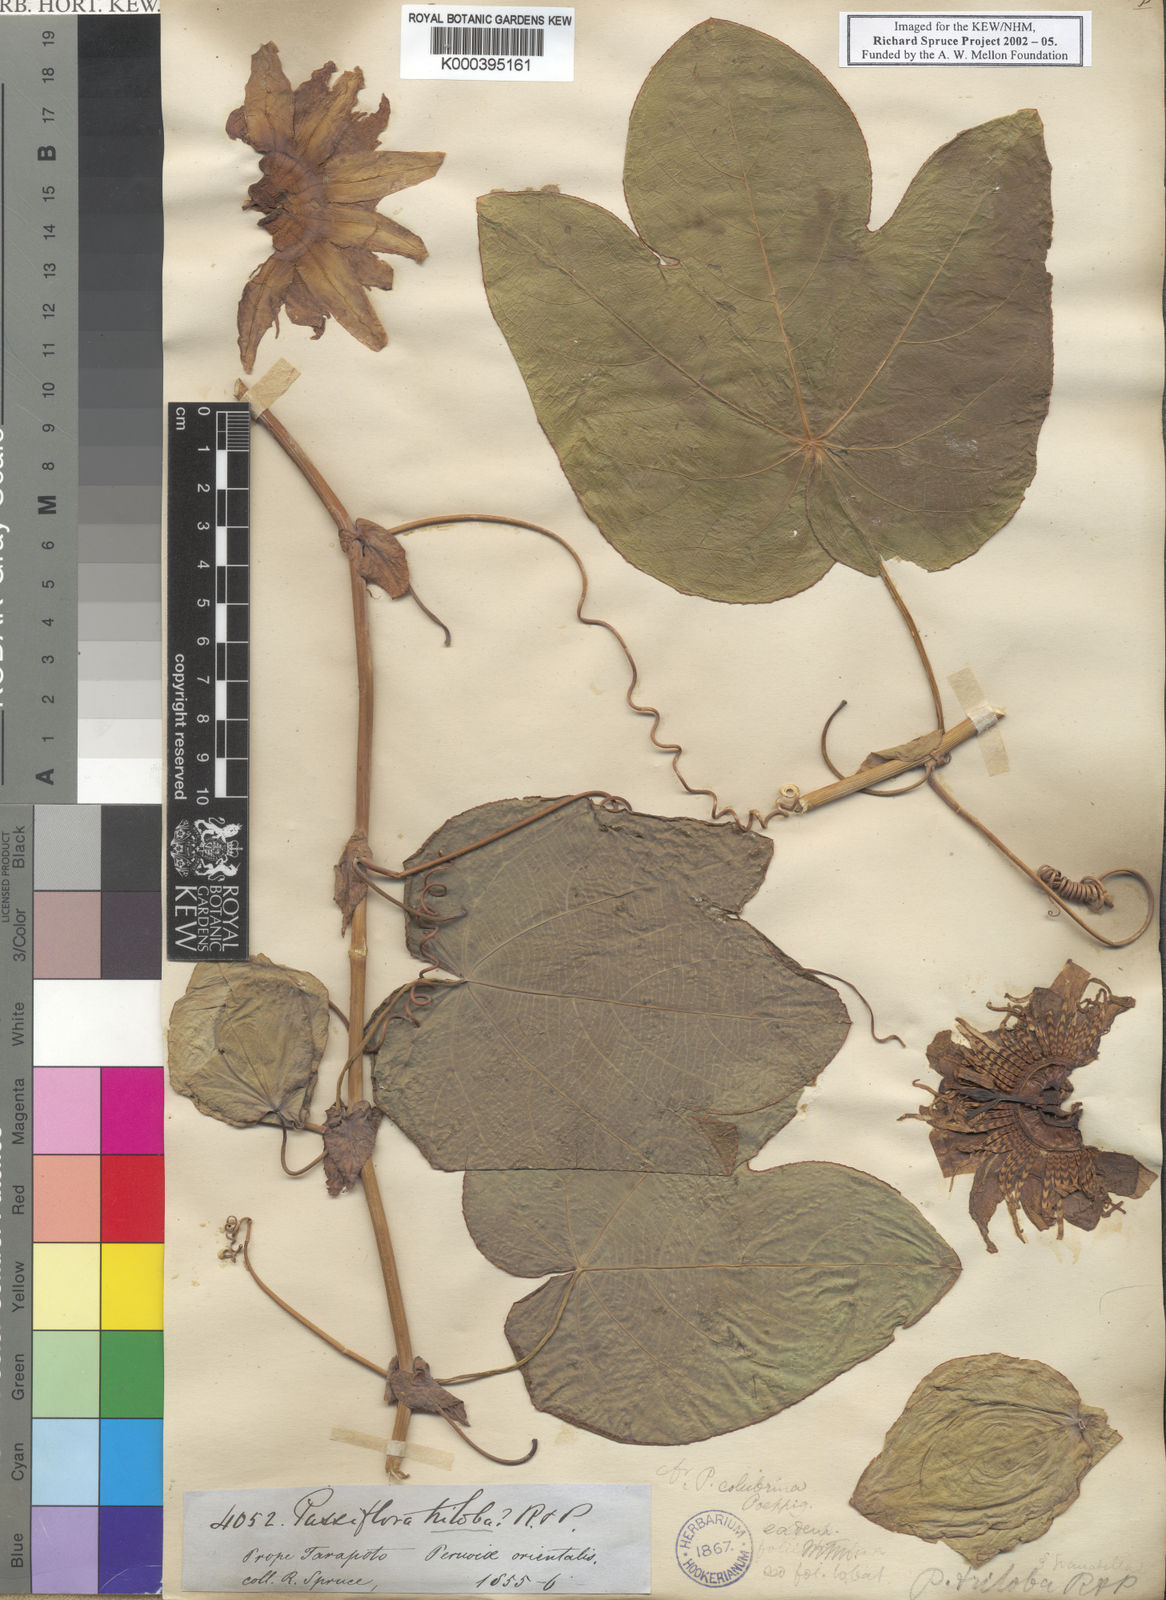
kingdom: Plantae
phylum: Tracheophyta
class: Magnoliopsida
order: Malpighiales
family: Passifloraceae
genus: Passiflora
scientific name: Passiflora
